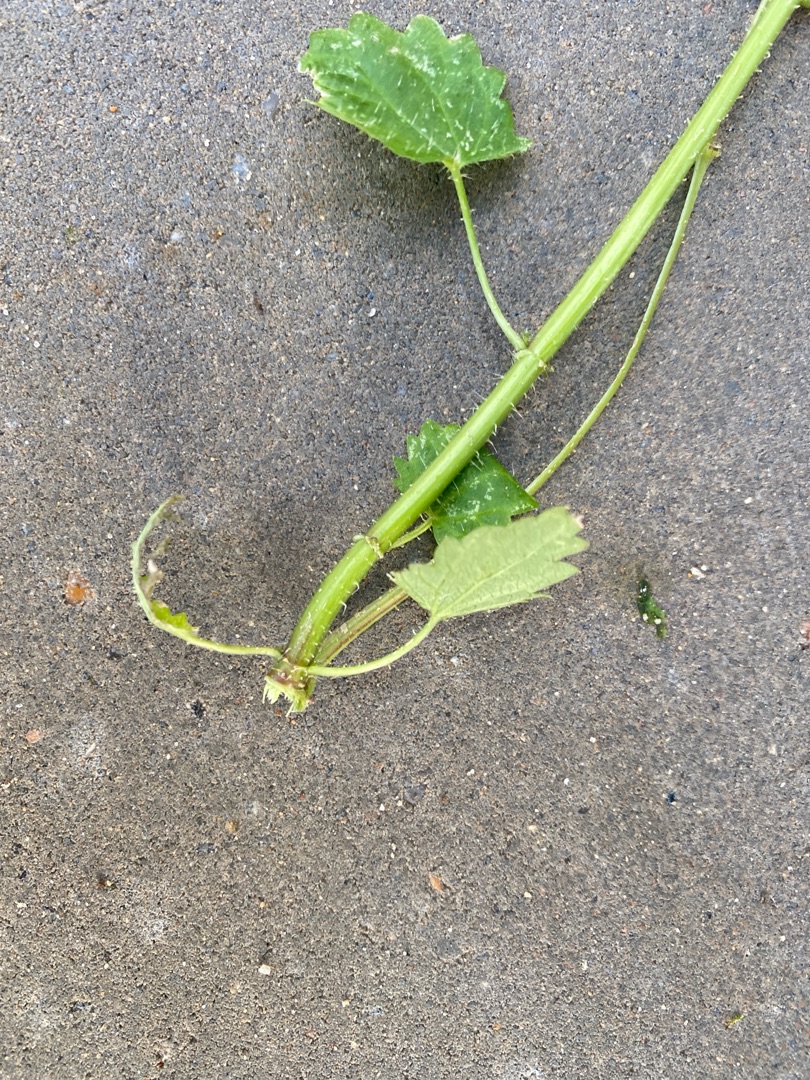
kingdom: Plantae
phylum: Tracheophyta
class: Magnoliopsida
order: Rosales
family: Urticaceae
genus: Urtica
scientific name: Urtica dioica
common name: Stor nælde
